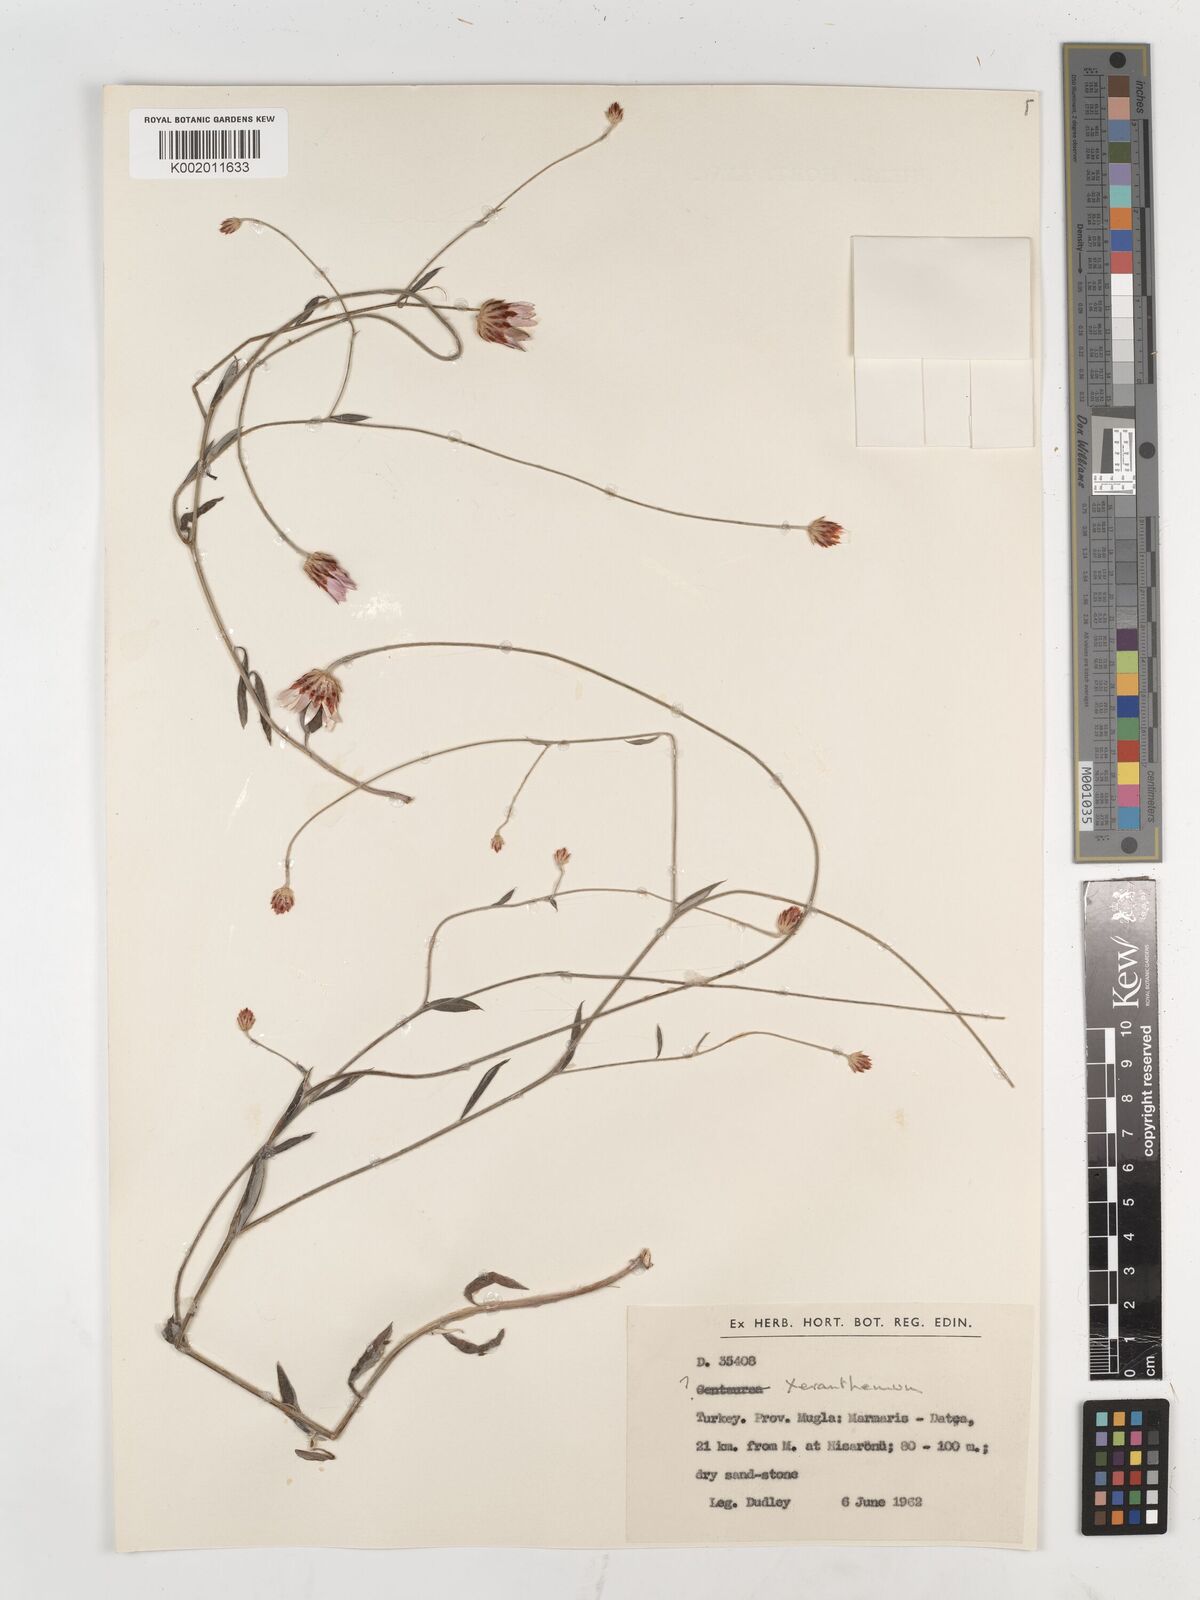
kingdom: Plantae
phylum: Tracheophyta
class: Magnoliopsida
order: Asterales
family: Asteraceae
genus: Xeranthemum
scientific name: Xeranthemum annuum
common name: Immortelle
